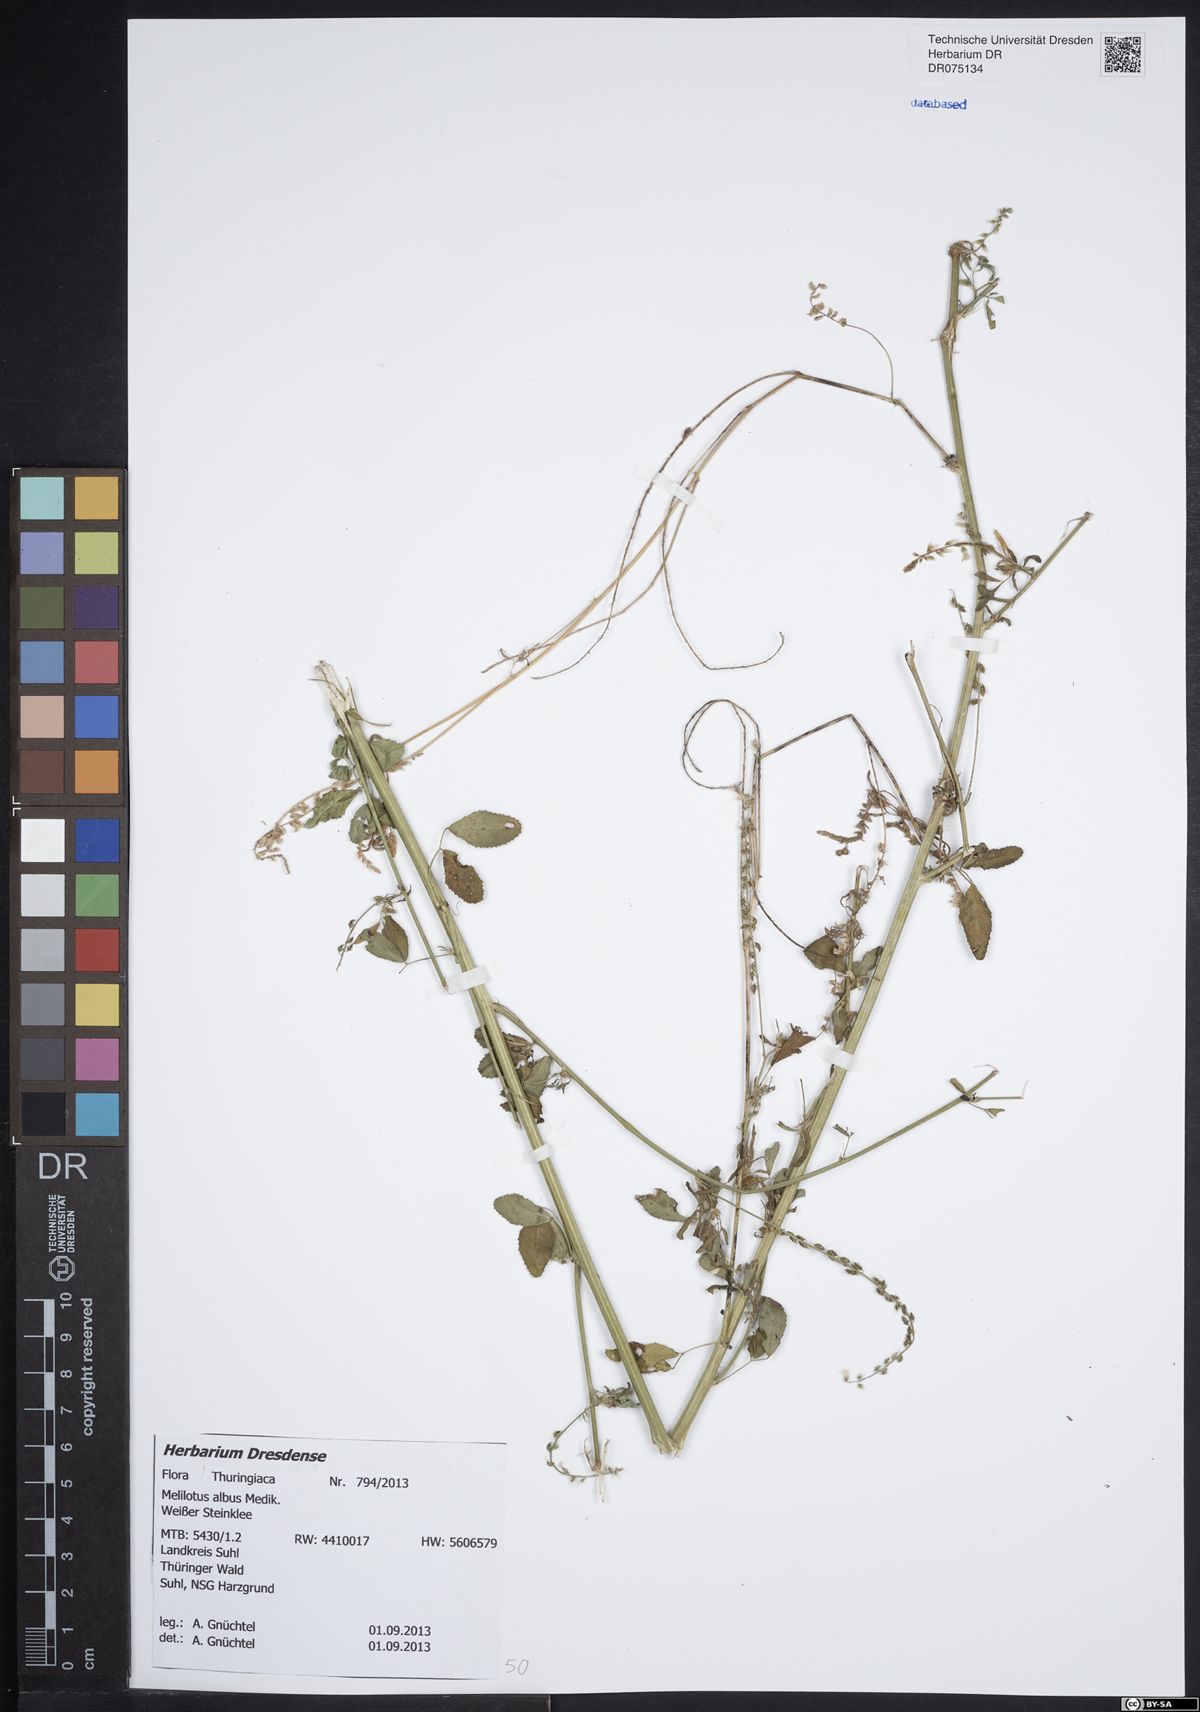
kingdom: Plantae
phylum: Tracheophyta
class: Magnoliopsida
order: Fabales
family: Fabaceae
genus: Melilotus
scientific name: Melilotus albus
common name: White melilot
